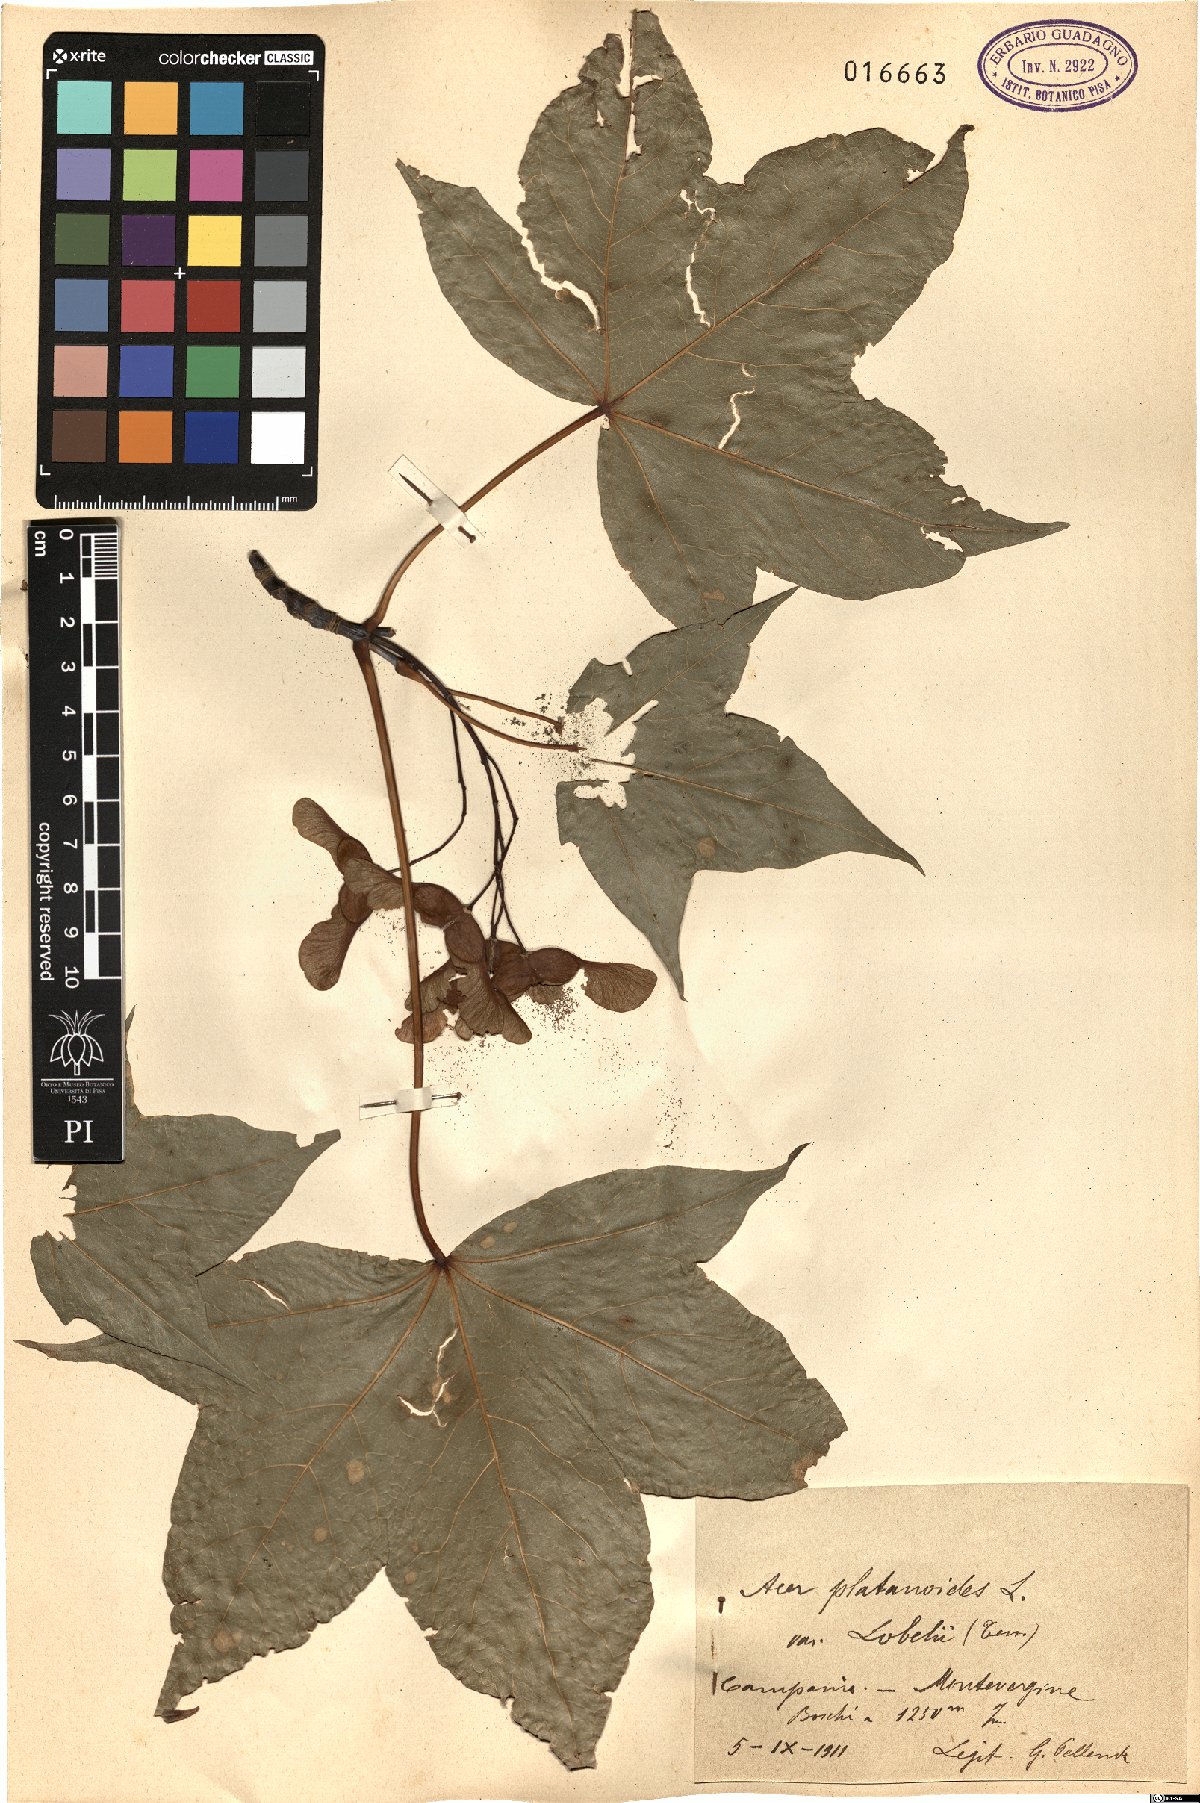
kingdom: Plantae
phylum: Tracheophyta
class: Magnoliopsida
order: Sapindales
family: Sapindaceae
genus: Acer
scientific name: Acer lobelii
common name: Lobel's maple
